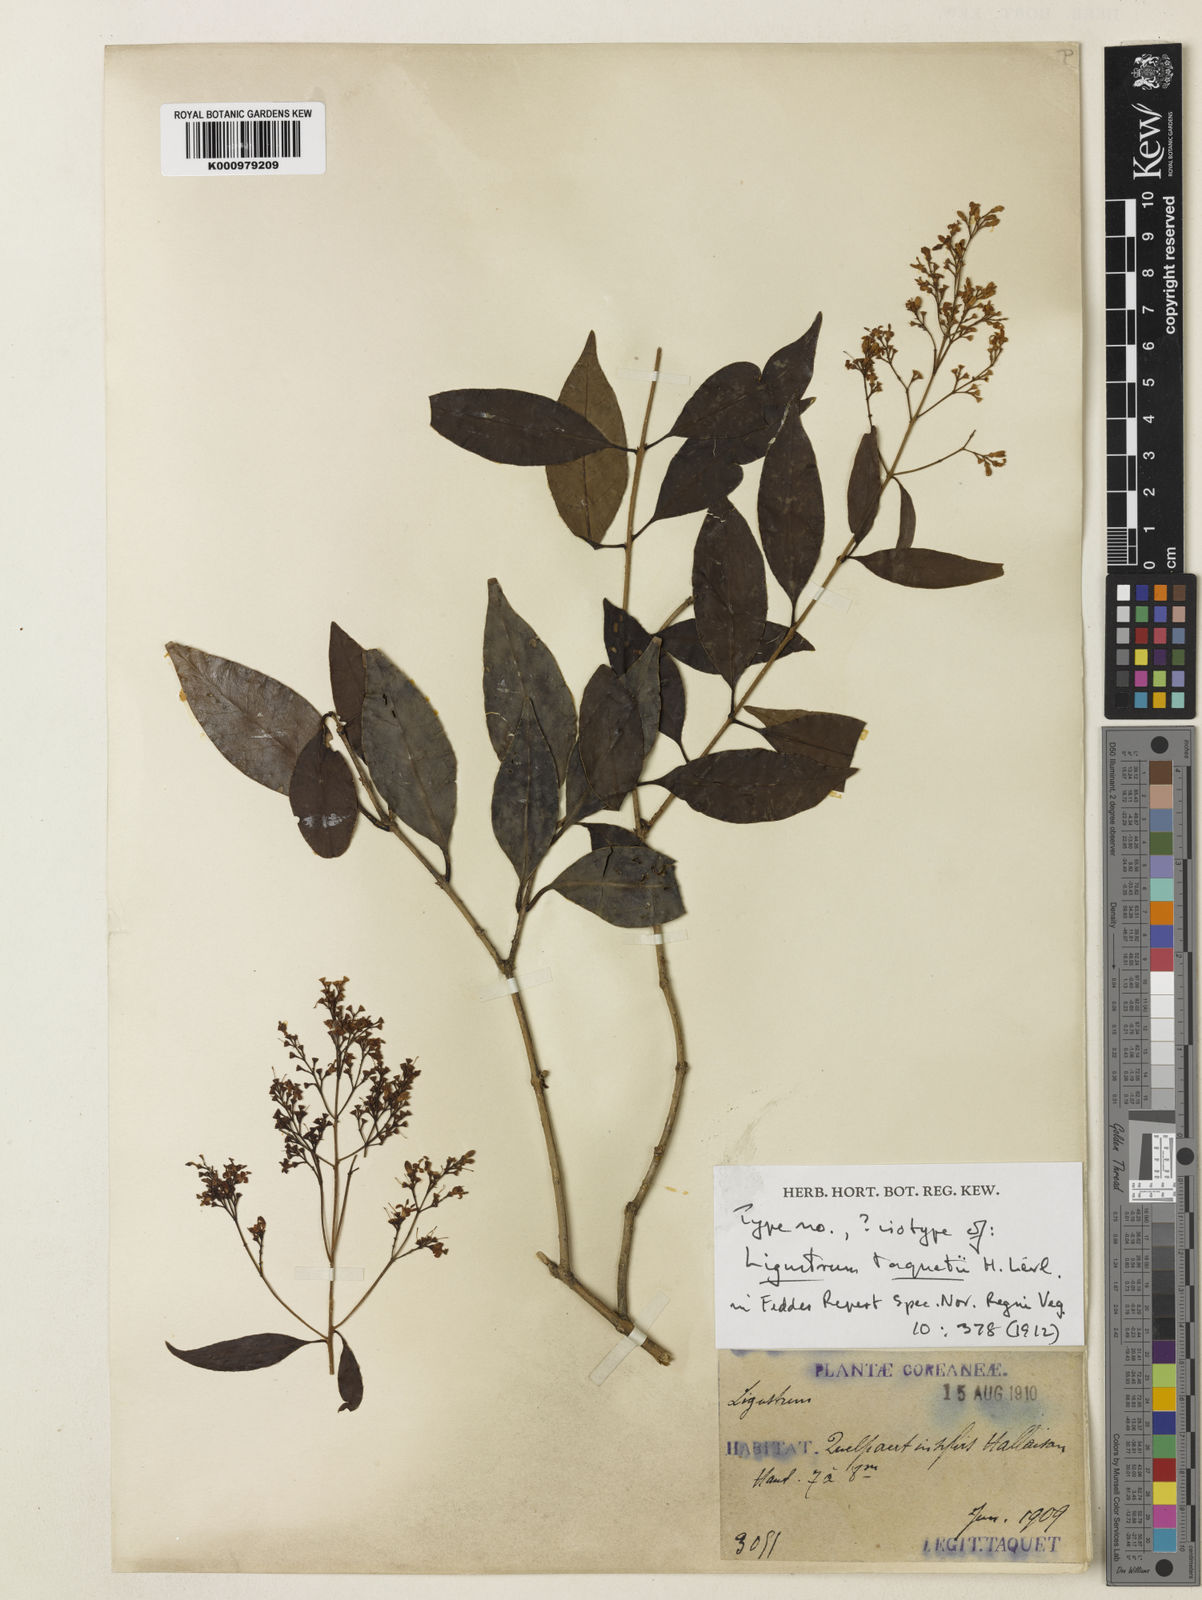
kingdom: Plantae
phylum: Tracheophyta
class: Magnoliopsida
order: Lamiales
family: Oleaceae
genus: Ligustrum
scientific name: Ligustrum
